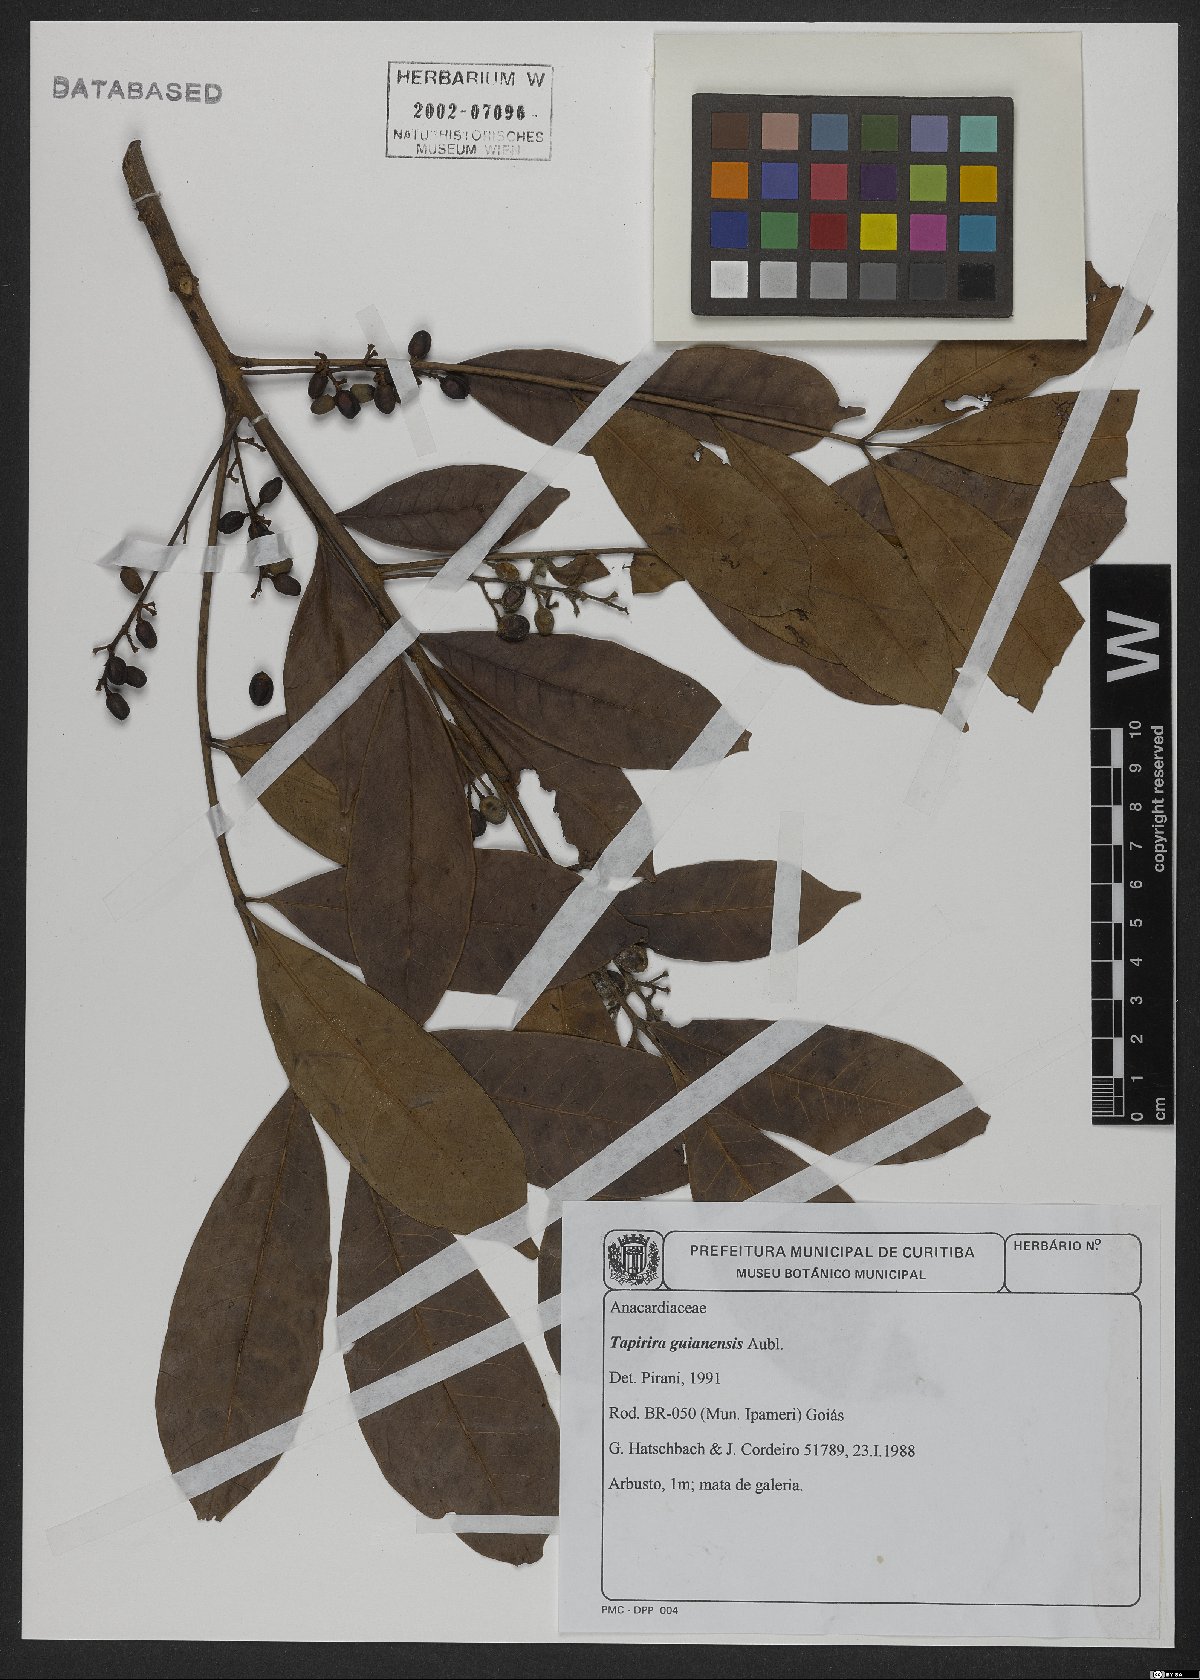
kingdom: Plantae
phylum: Tracheophyta
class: Magnoliopsida
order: Sapindales
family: Anacardiaceae
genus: Tapirira
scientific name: Tapirira guianensis
